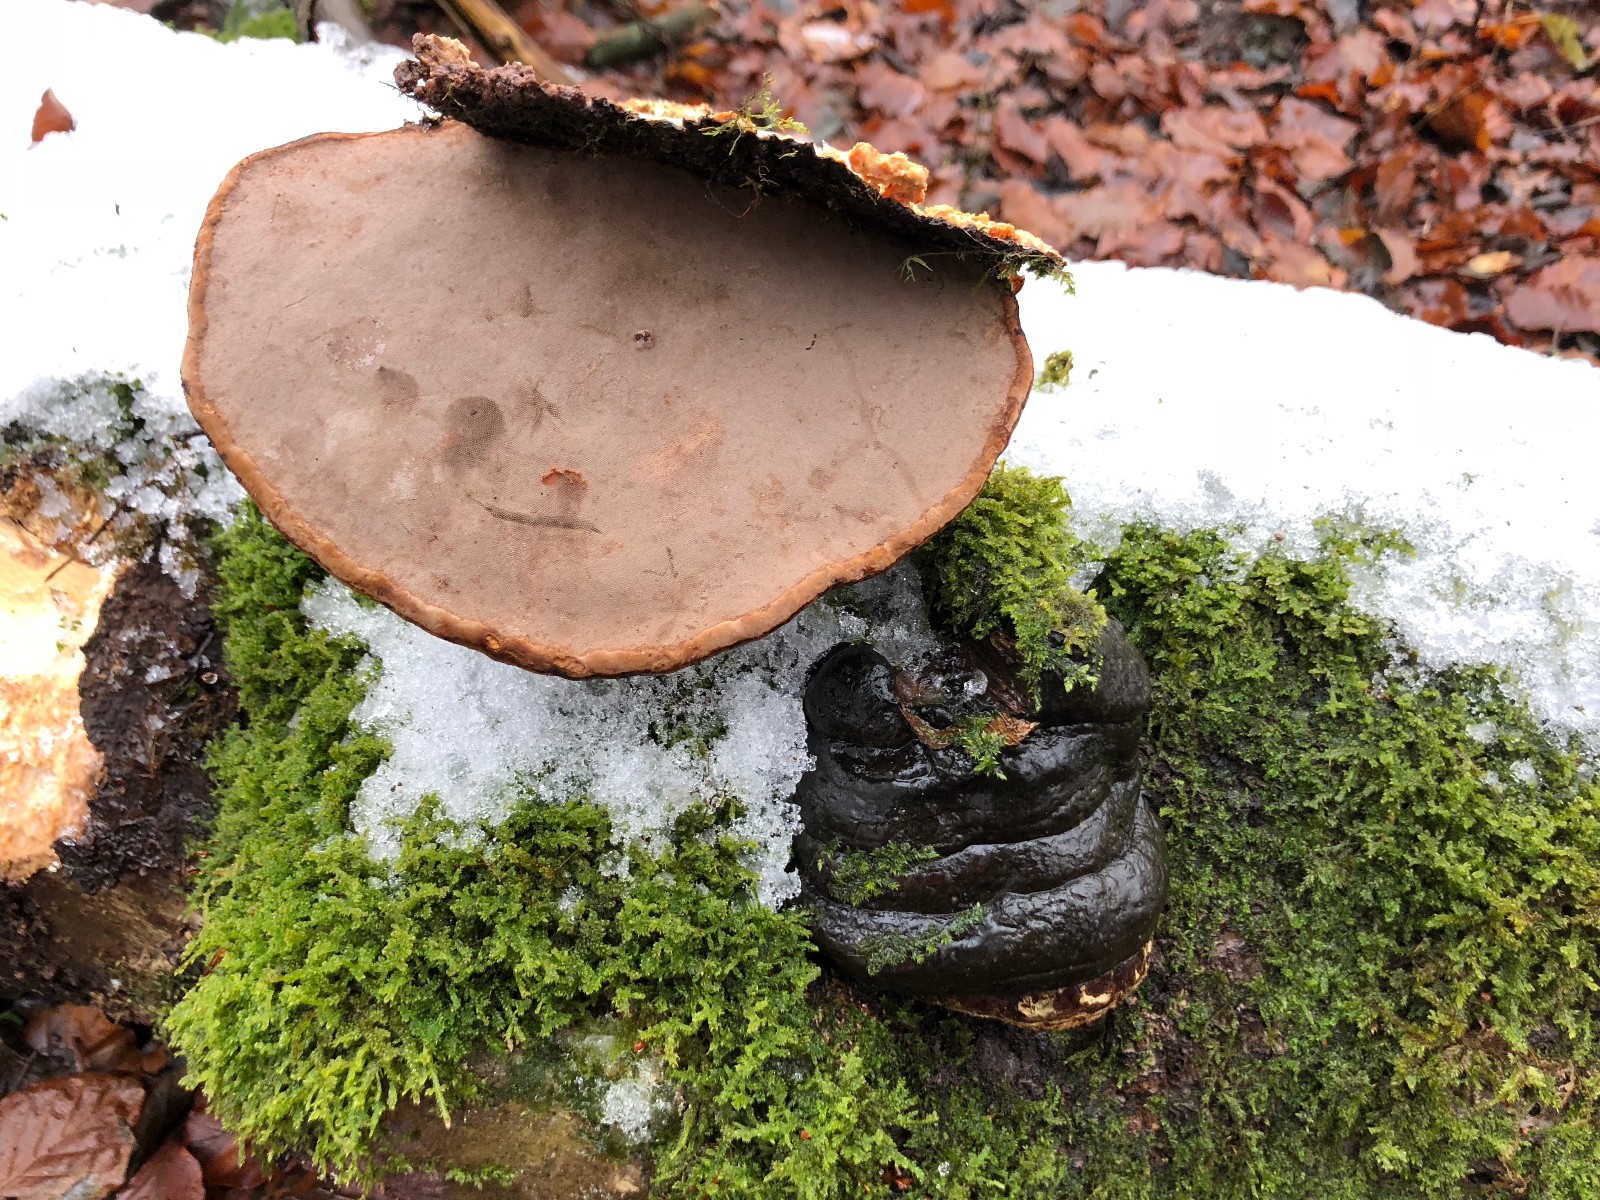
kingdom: Fungi
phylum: Basidiomycota
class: Agaricomycetes
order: Polyporales
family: Polyporaceae
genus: Fomes
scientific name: Fomes fomentarius
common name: tøndersvamp
